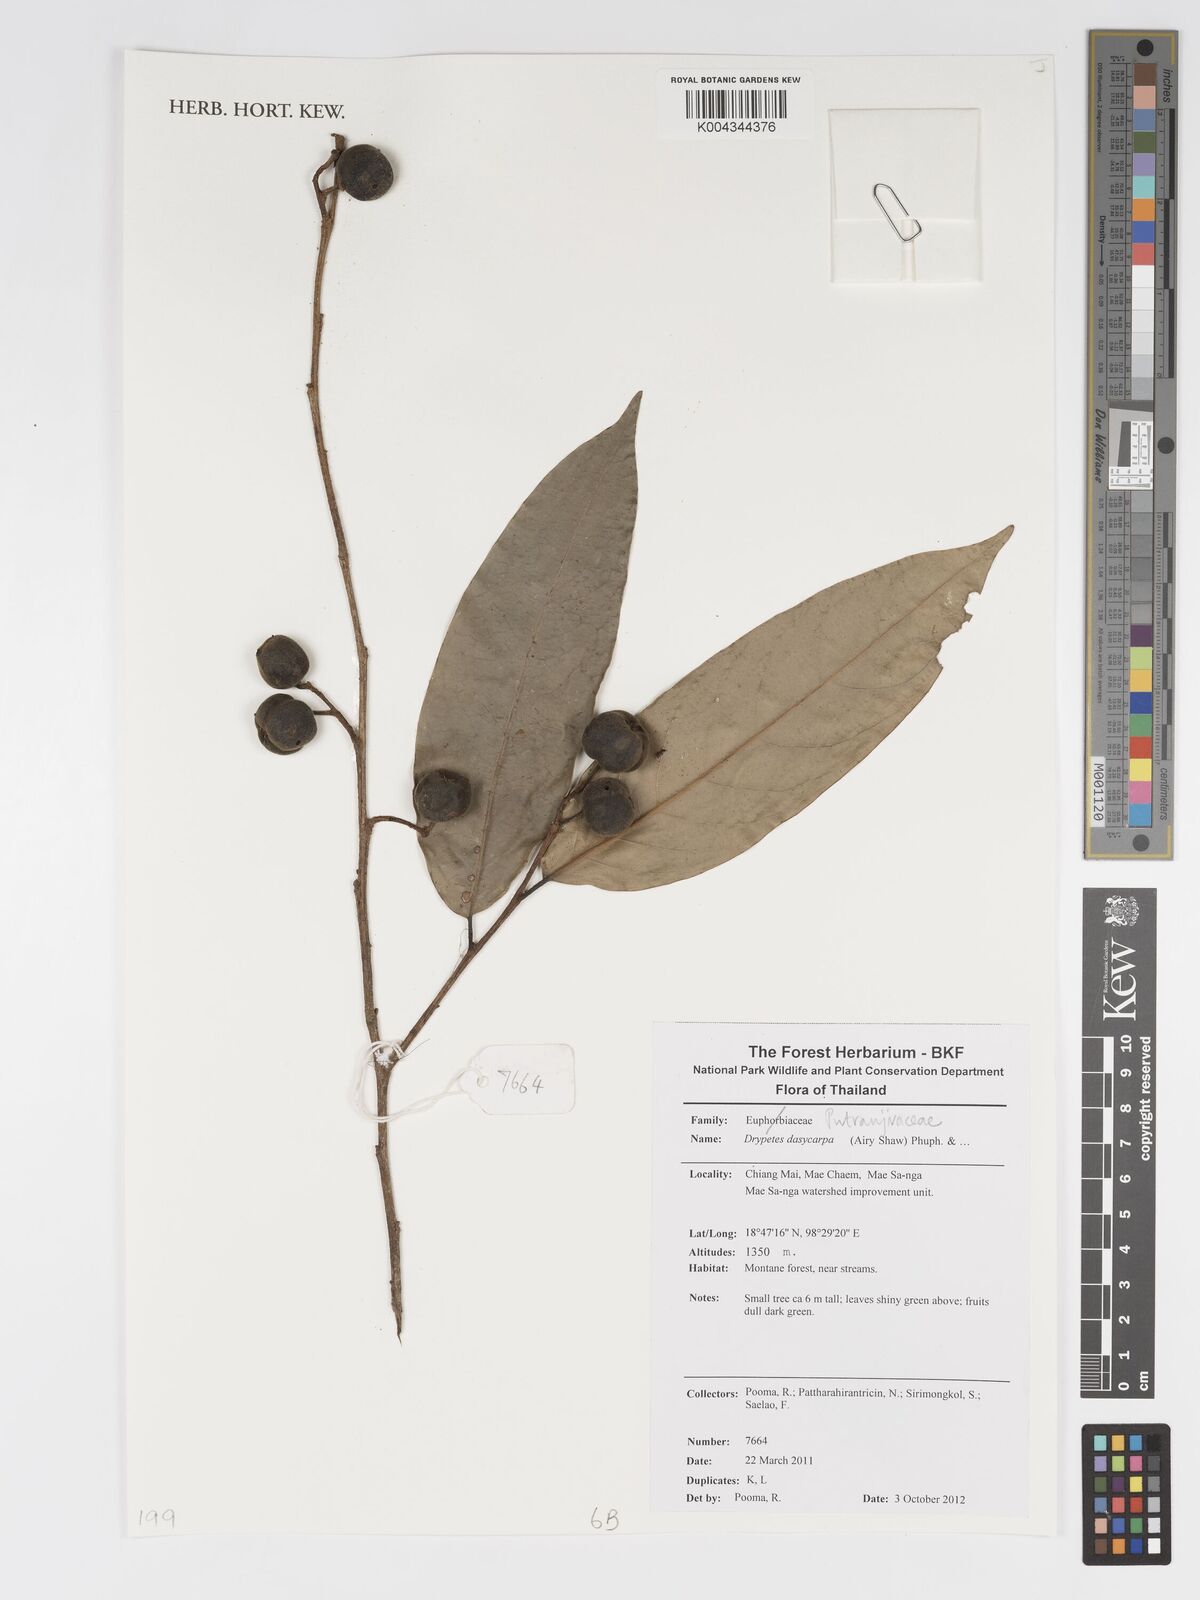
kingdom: Plantae
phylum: Tracheophyta
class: Magnoliopsida
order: Malpighiales
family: Putranjivaceae
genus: Drypetes
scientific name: Drypetes dasycarpa
